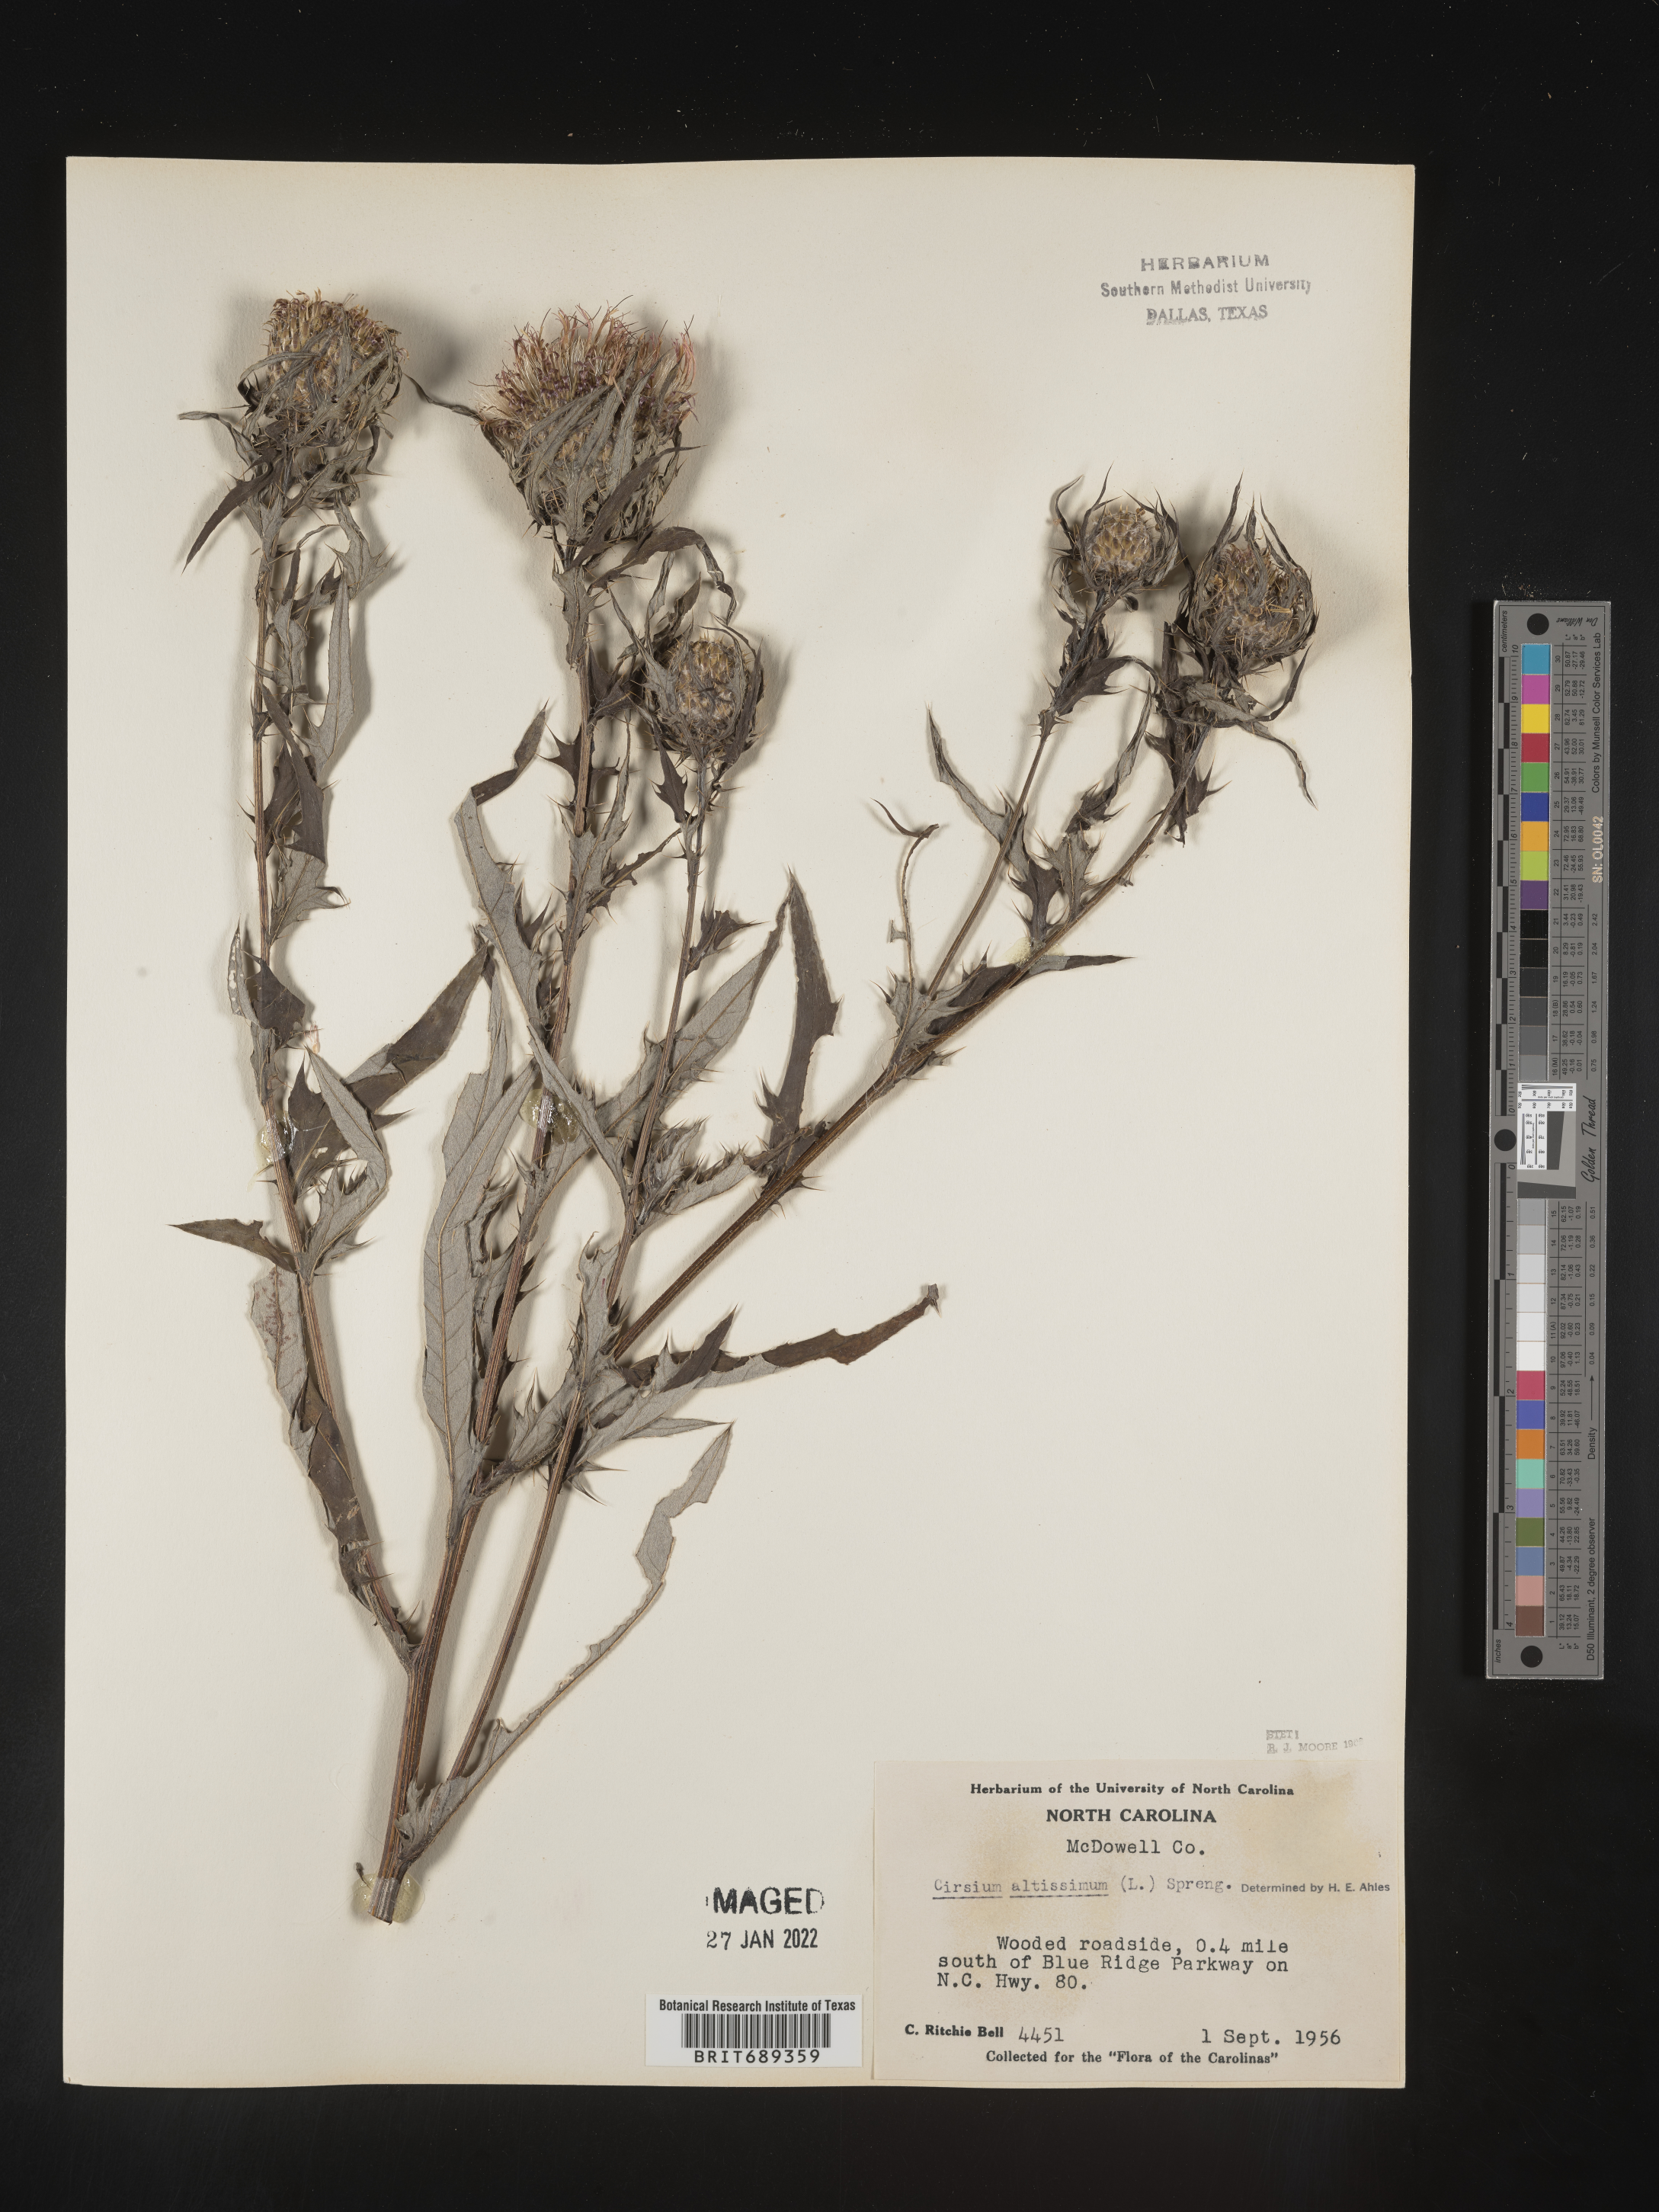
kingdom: Plantae
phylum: Tracheophyta
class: Magnoliopsida
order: Asterales
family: Asteraceae
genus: Cirsium
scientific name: Cirsium altissimum
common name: Roadside thistle
